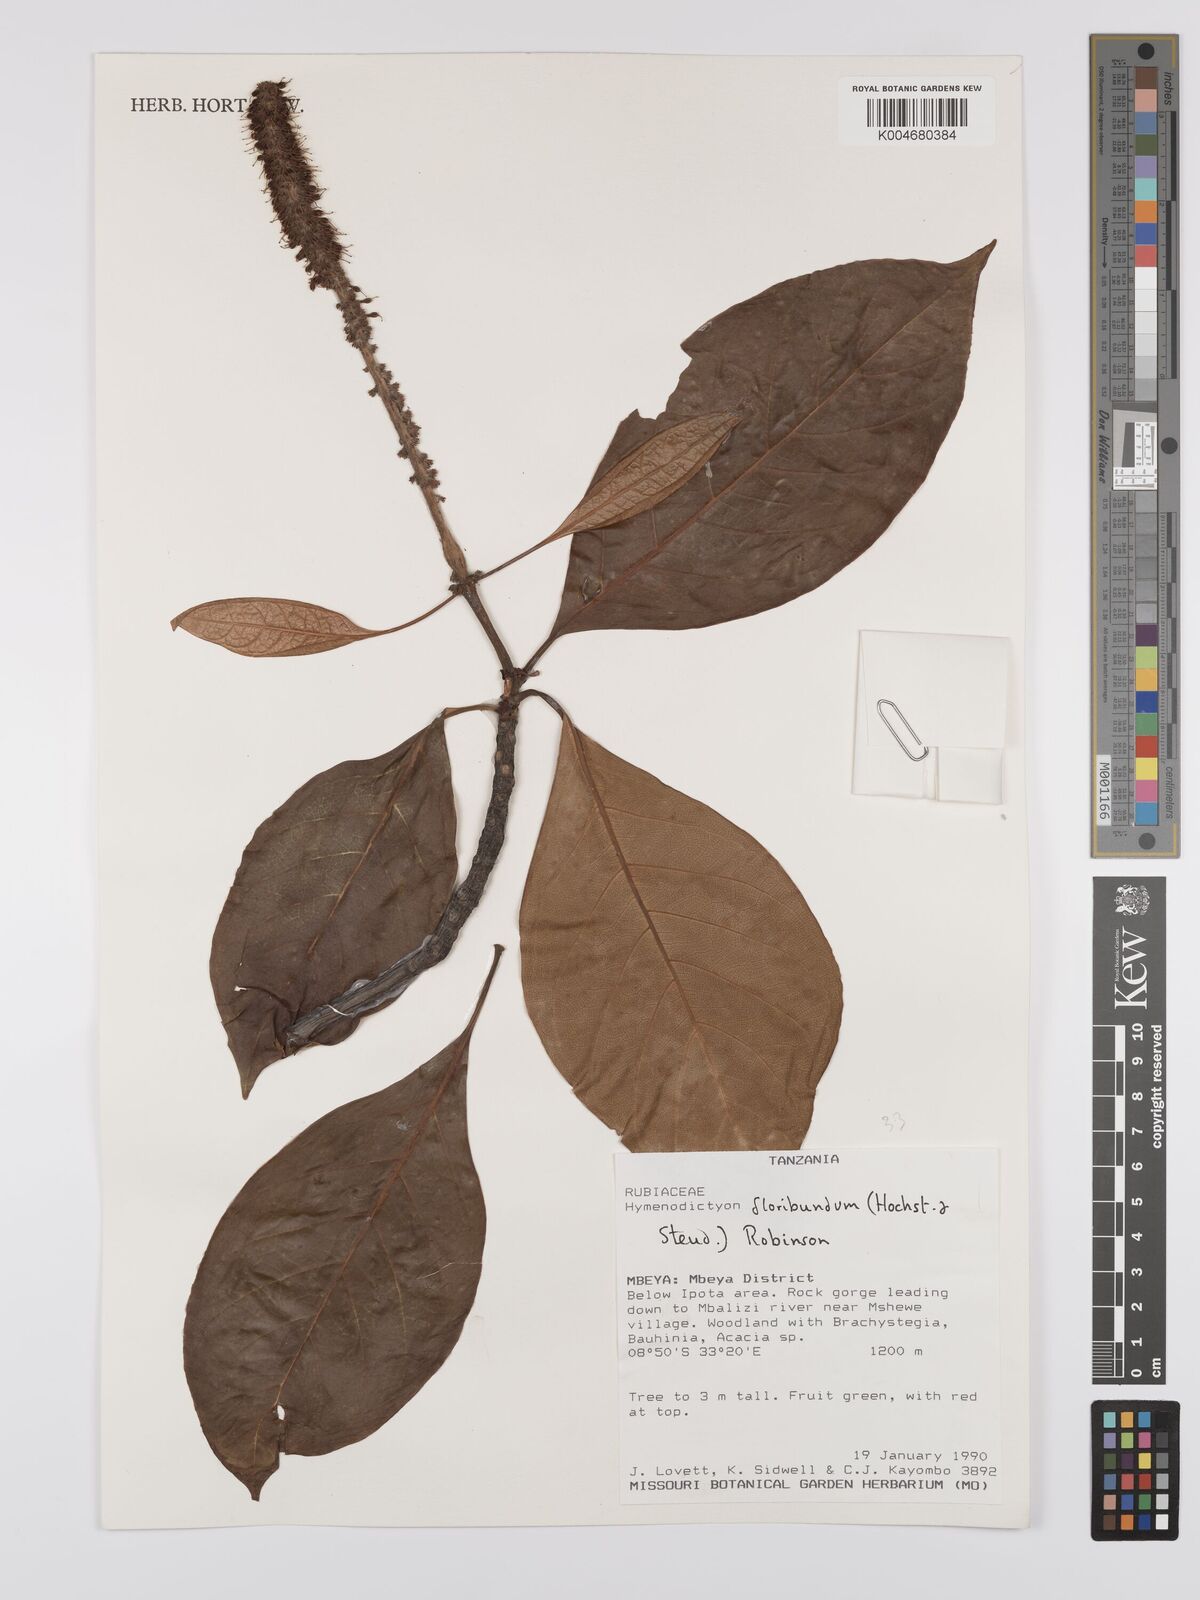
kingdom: Plantae
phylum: Tracheophyta
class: Magnoliopsida
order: Gentianales
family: Rubiaceae
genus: Hymenodictyon
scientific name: Hymenodictyon floribundum
